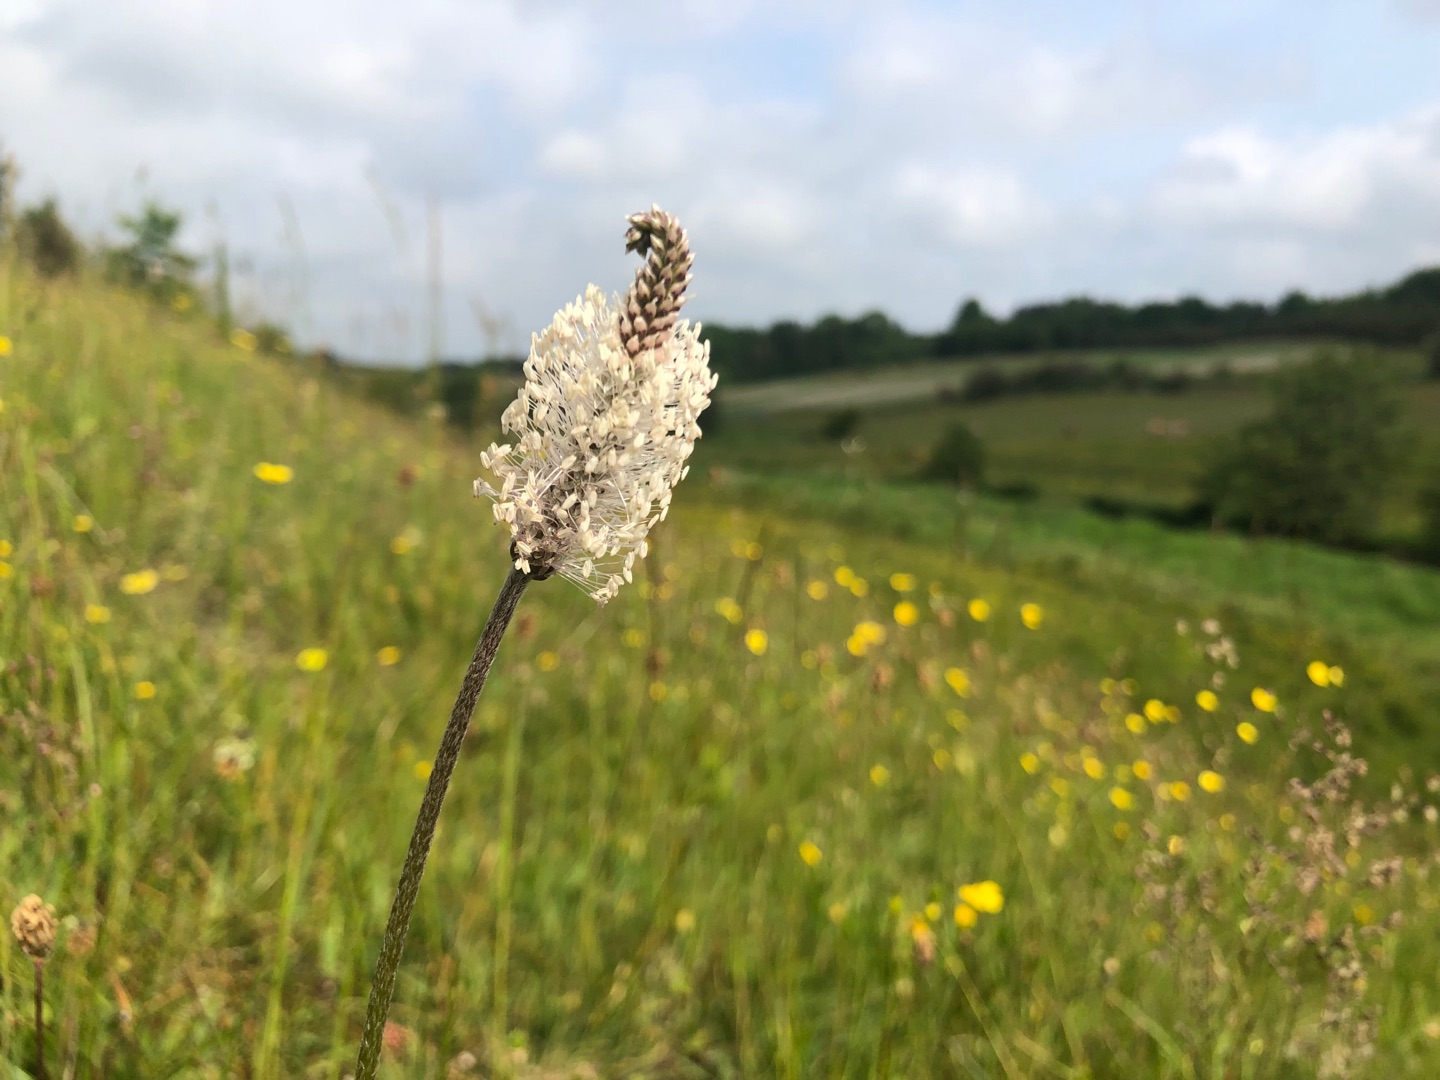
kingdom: Plantae
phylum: Tracheophyta
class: Magnoliopsida
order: Lamiales
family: Plantaginaceae
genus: Plantago
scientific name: Plantago media
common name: Dunet vejbred
